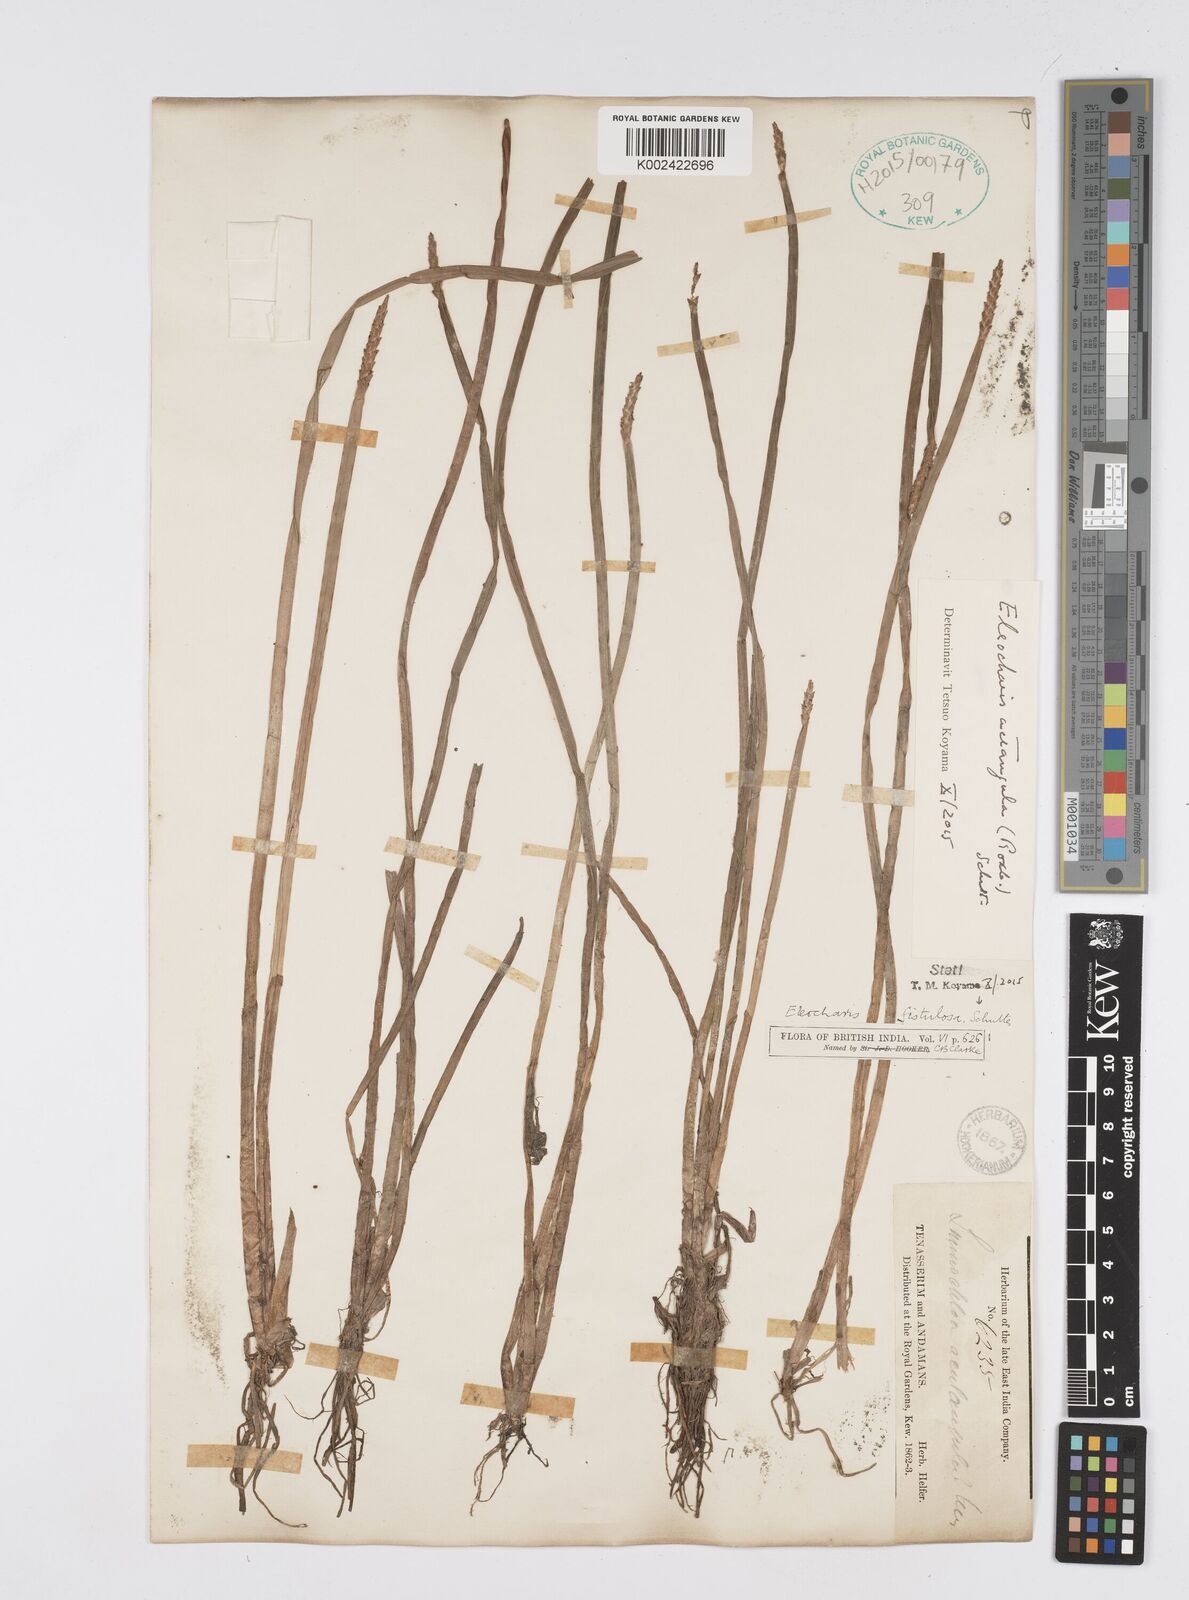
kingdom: Plantae
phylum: Tracheophyta
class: Liliopsida
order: Poales
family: Cyperaceae
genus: Eleocharis
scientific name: Eleocharis acutangula
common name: Acute spikerush
